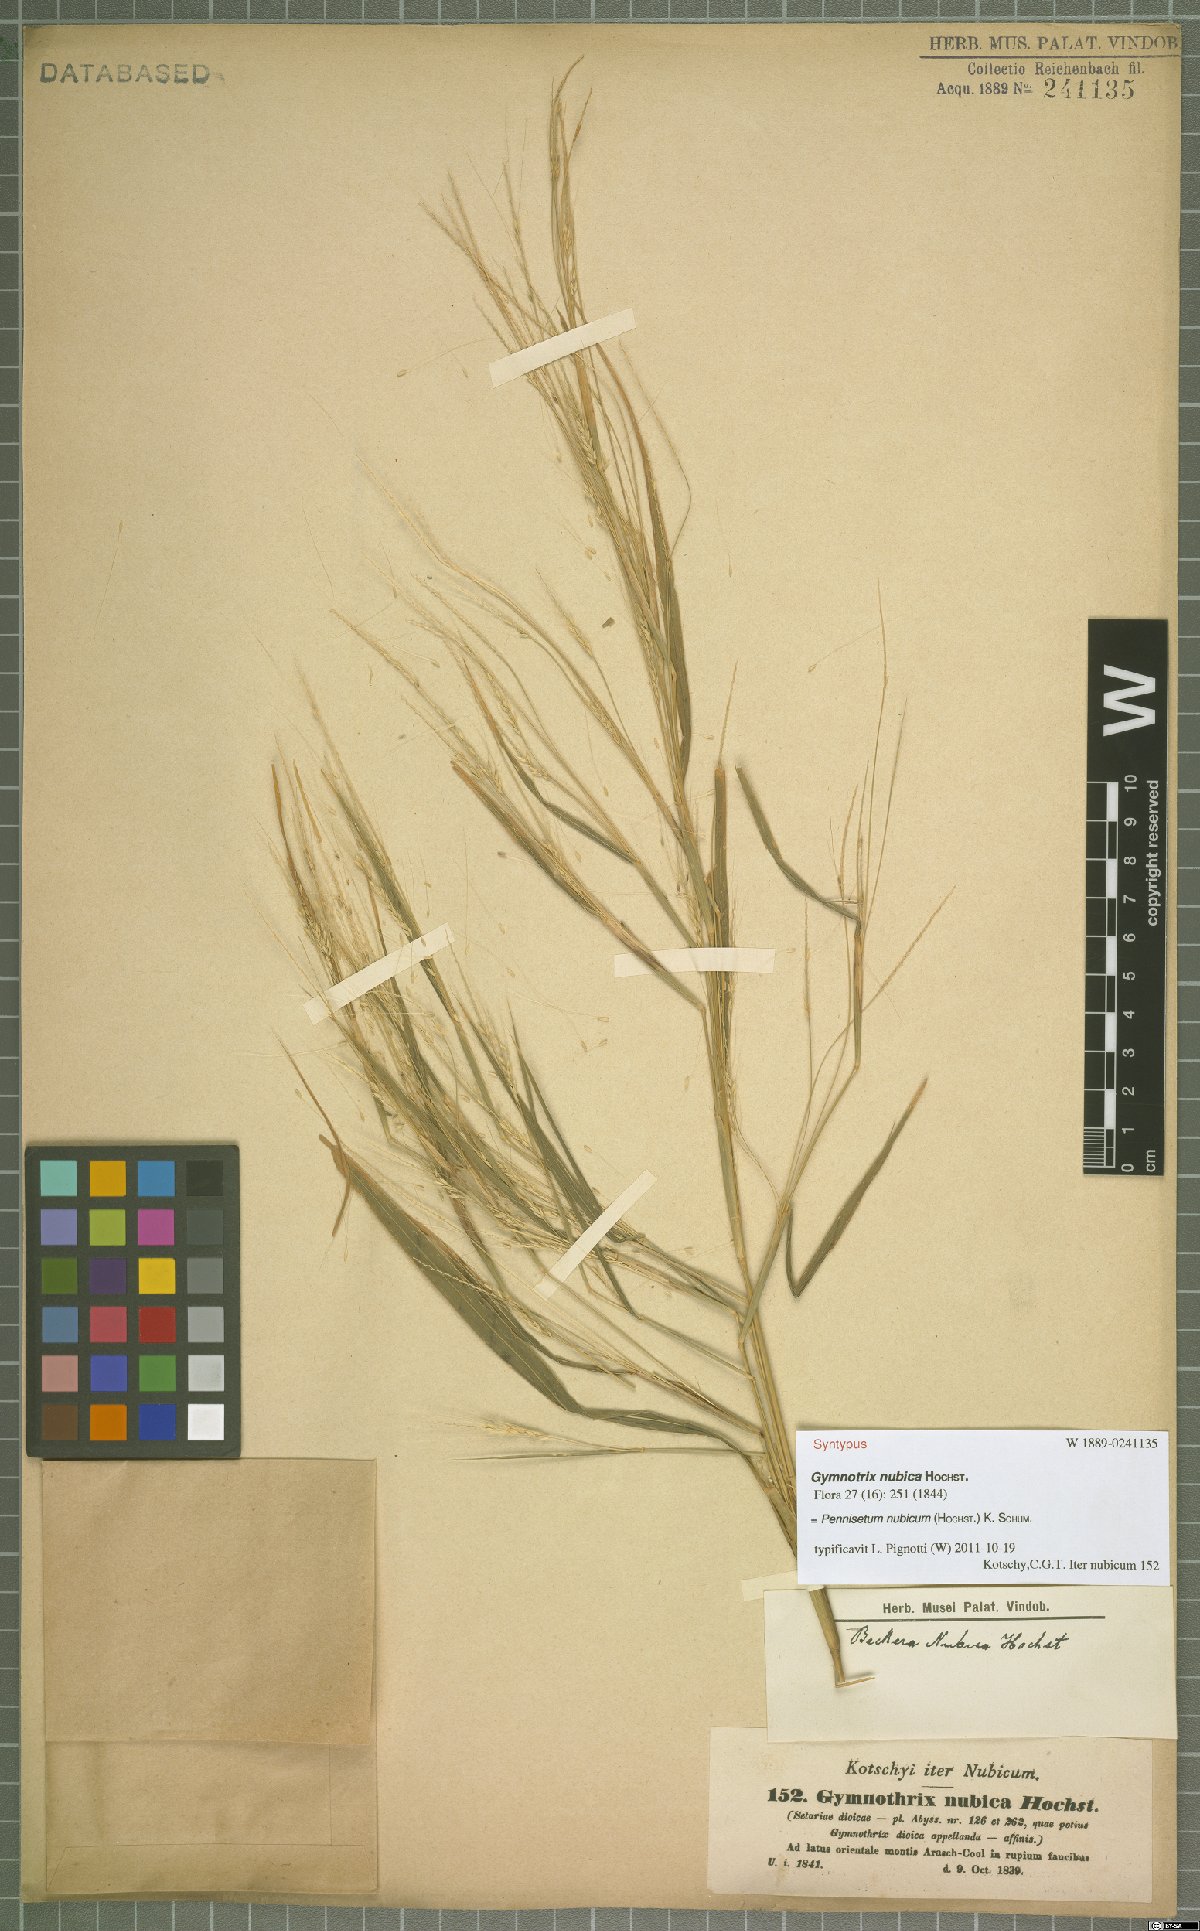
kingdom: Plantae
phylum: Tracheophyta
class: Liliopsida
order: Poales
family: Poaceae
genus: Cenchrus
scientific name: Cenchrus nubicus
